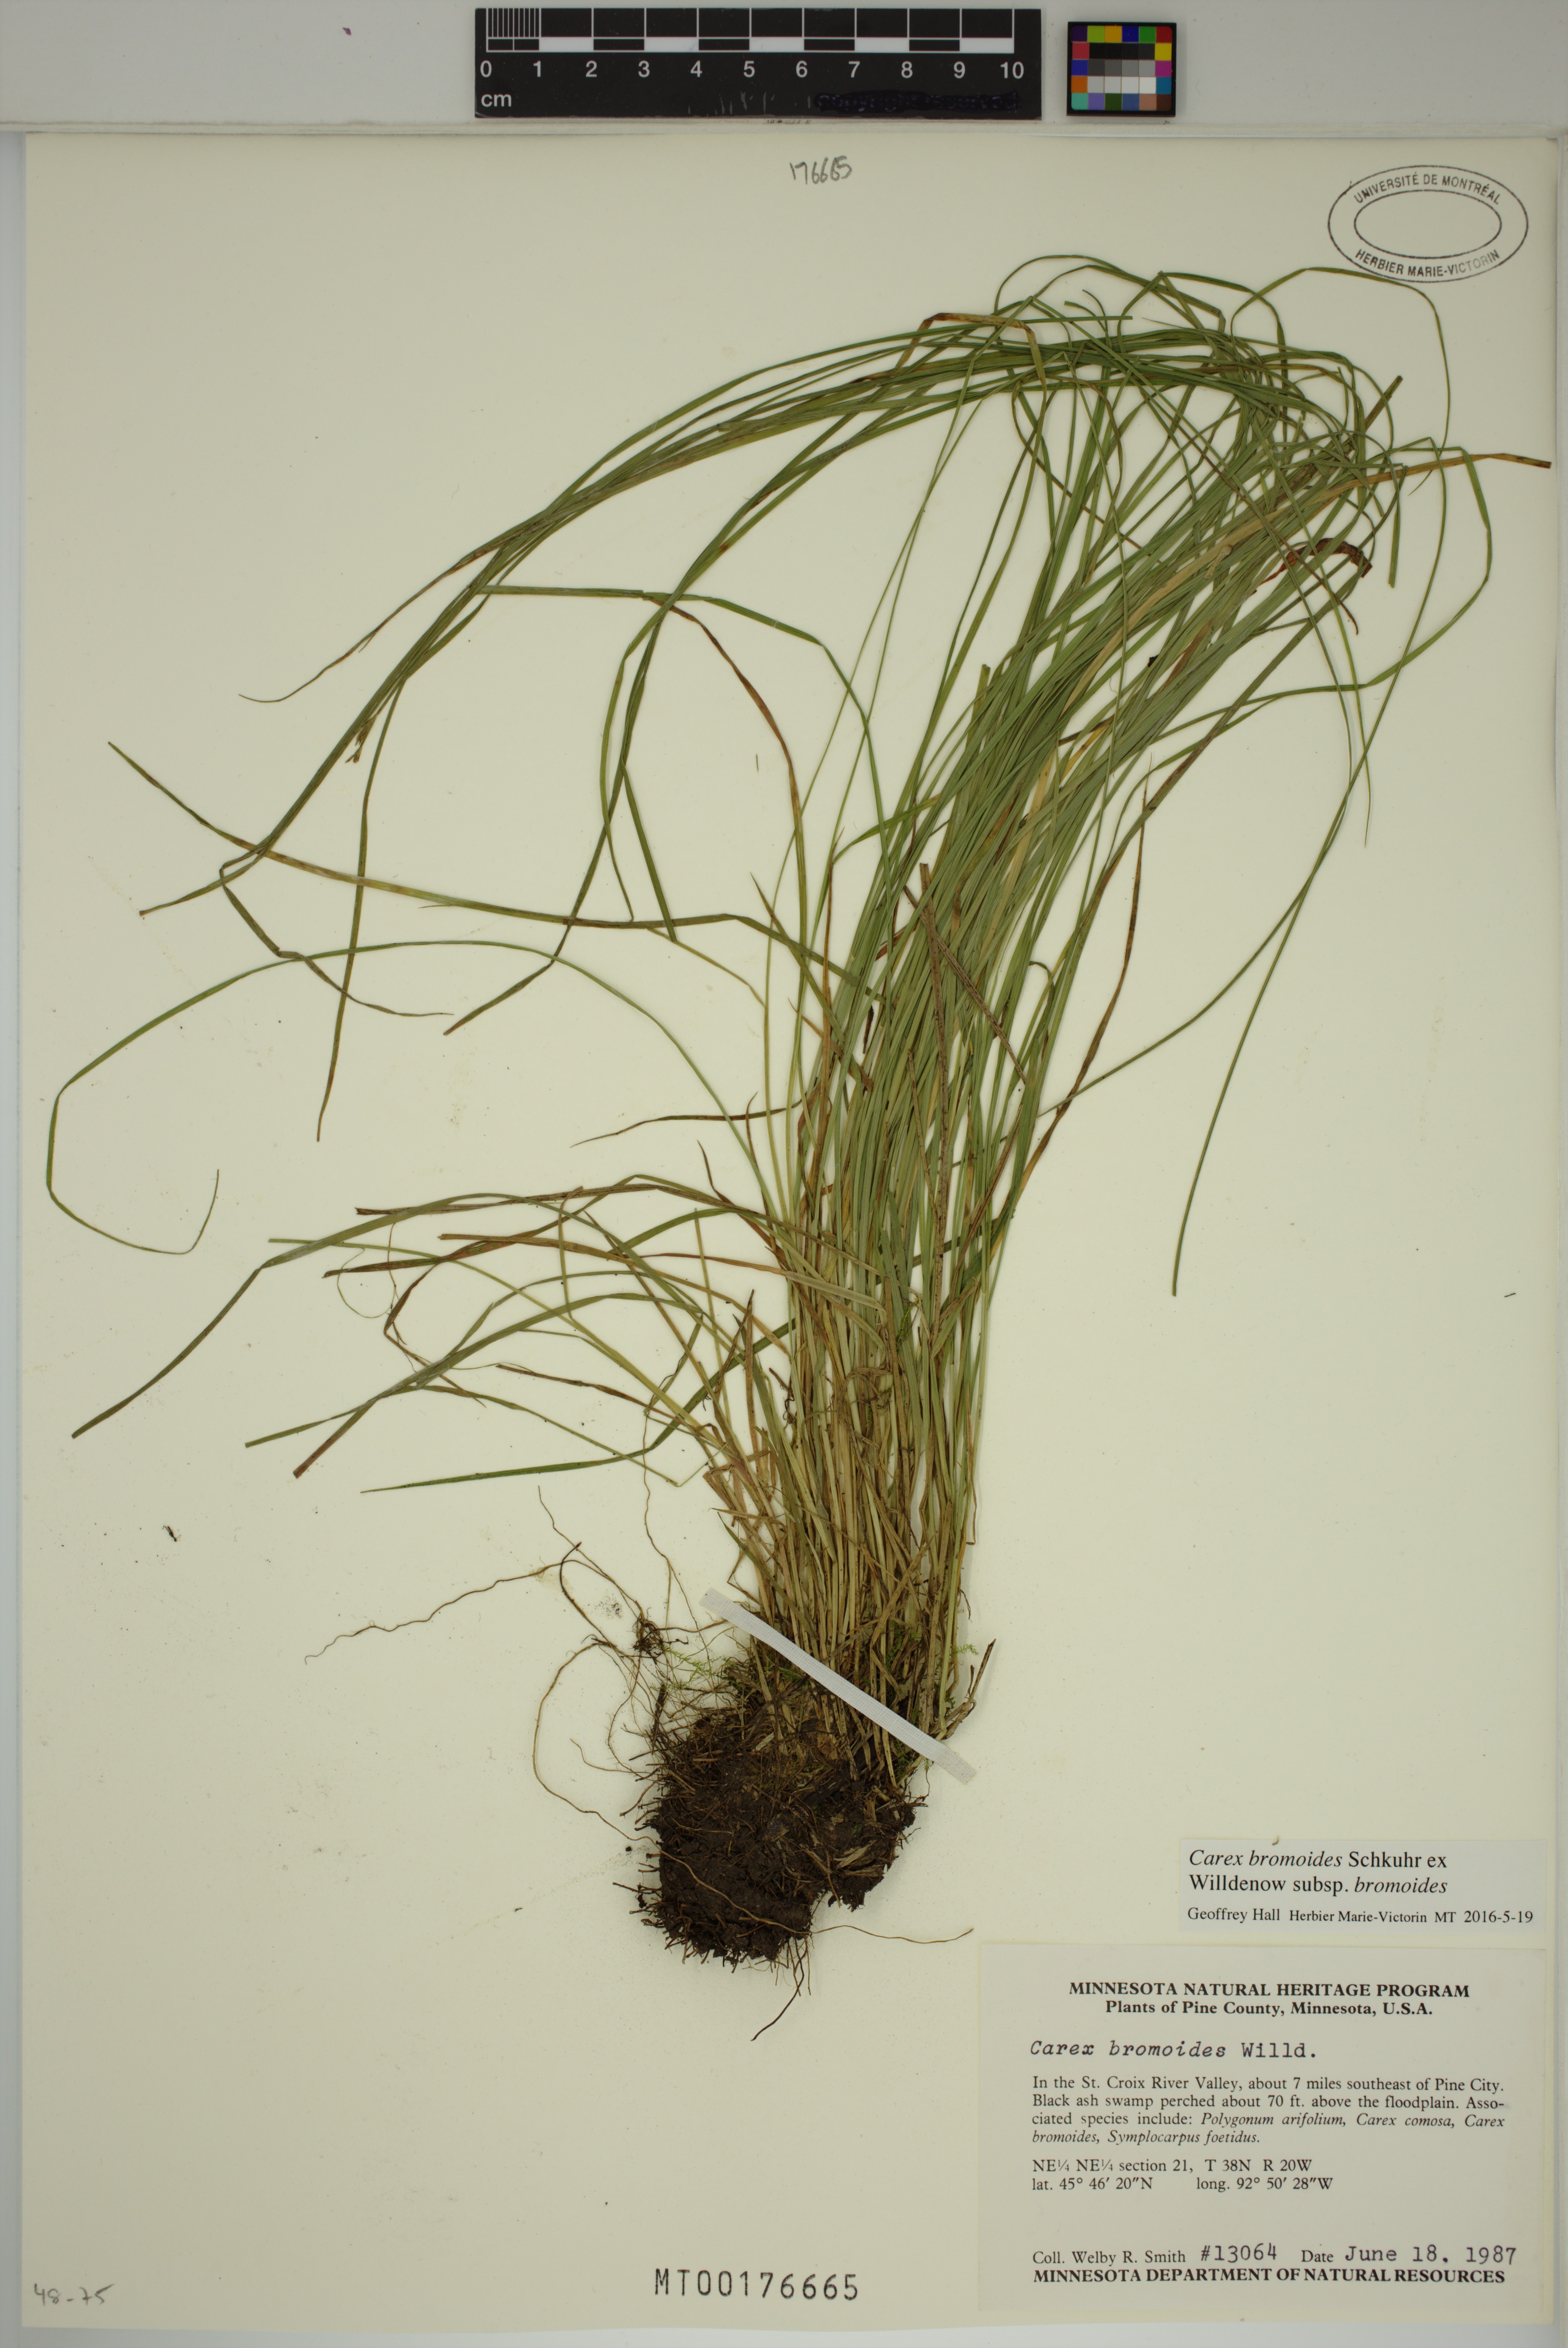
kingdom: Plantae
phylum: Tracheophyta
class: Liliopsida
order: Poales
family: Cyperaceae
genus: Carex
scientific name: Carex bromoides
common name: Brome hummock sedge
